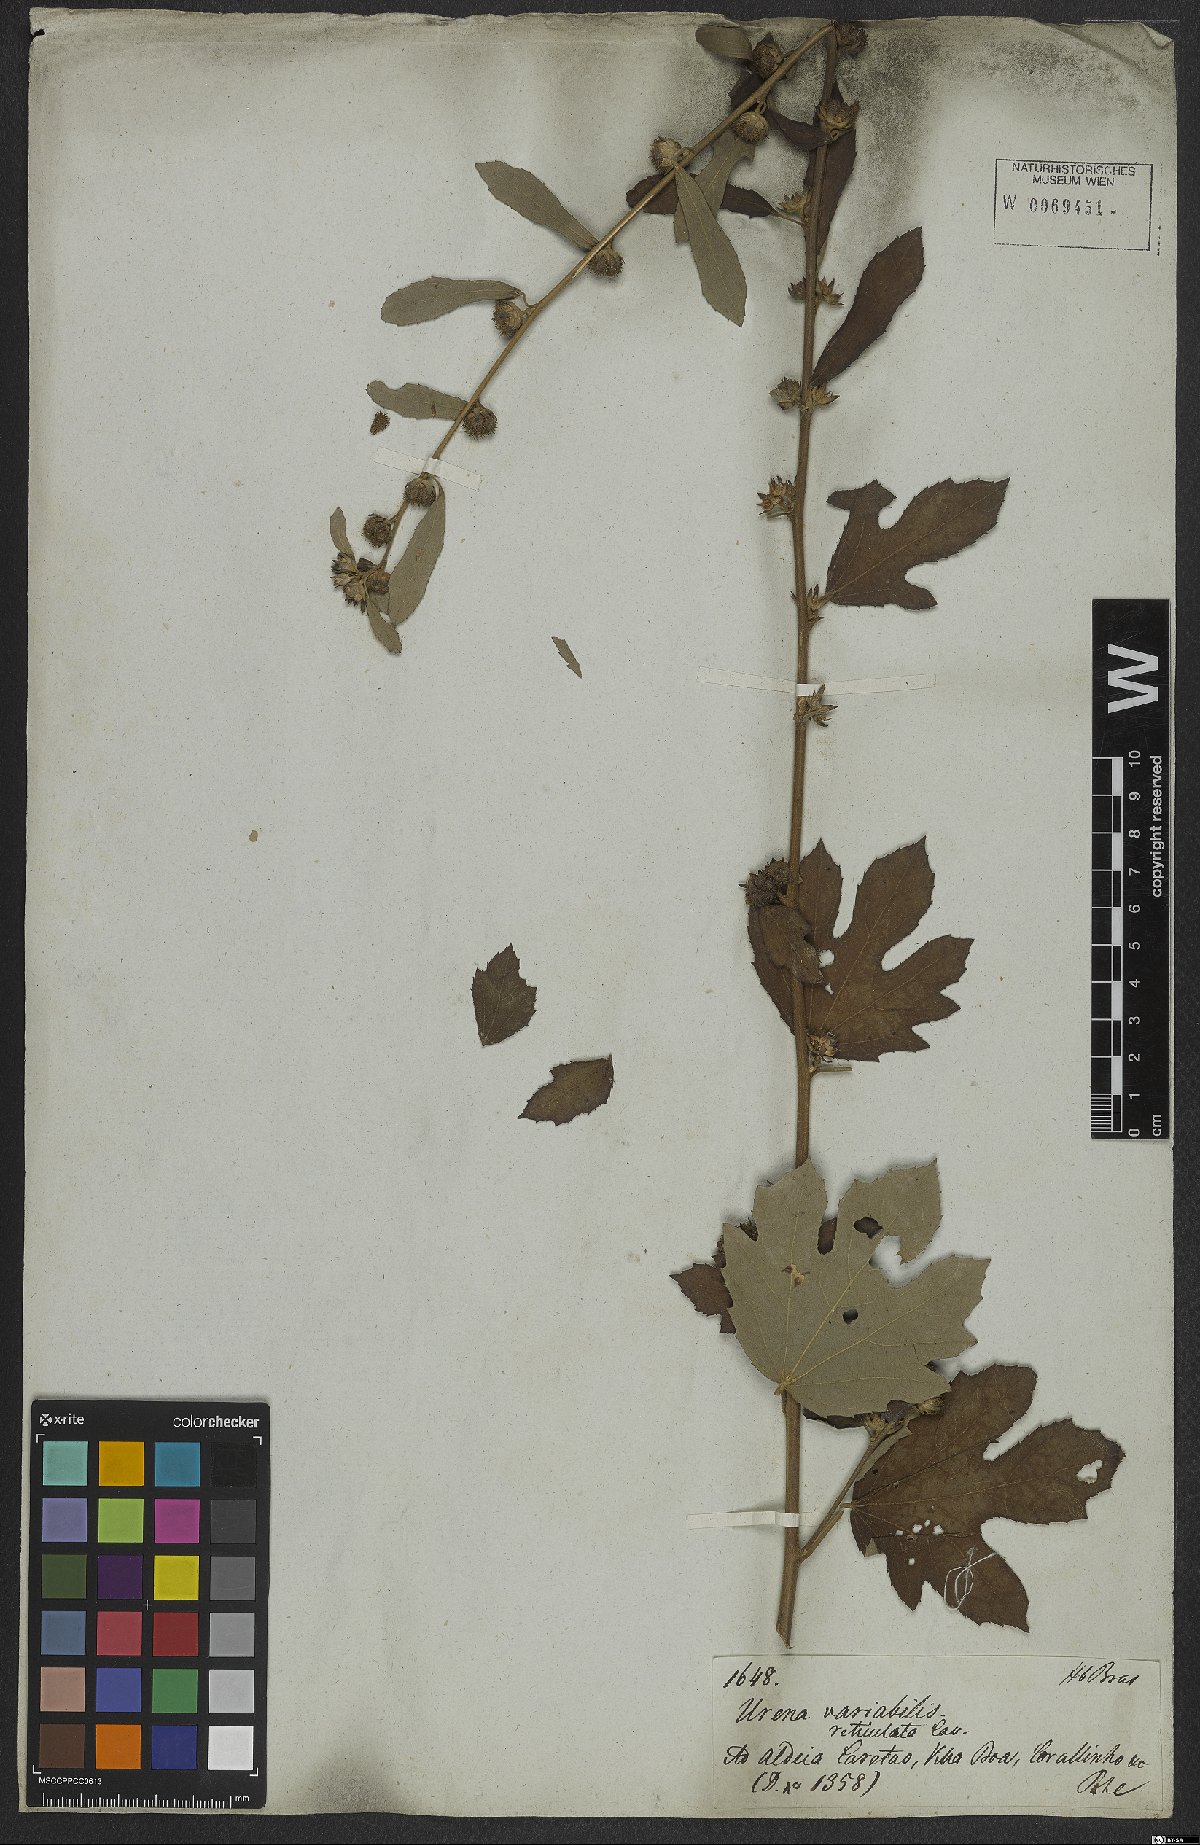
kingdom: Plantae
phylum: Tracheophyta
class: Magnoliopsida
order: Malvales
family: Malvaceae
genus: Urena
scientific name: Urena lobata
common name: Caesarweed
